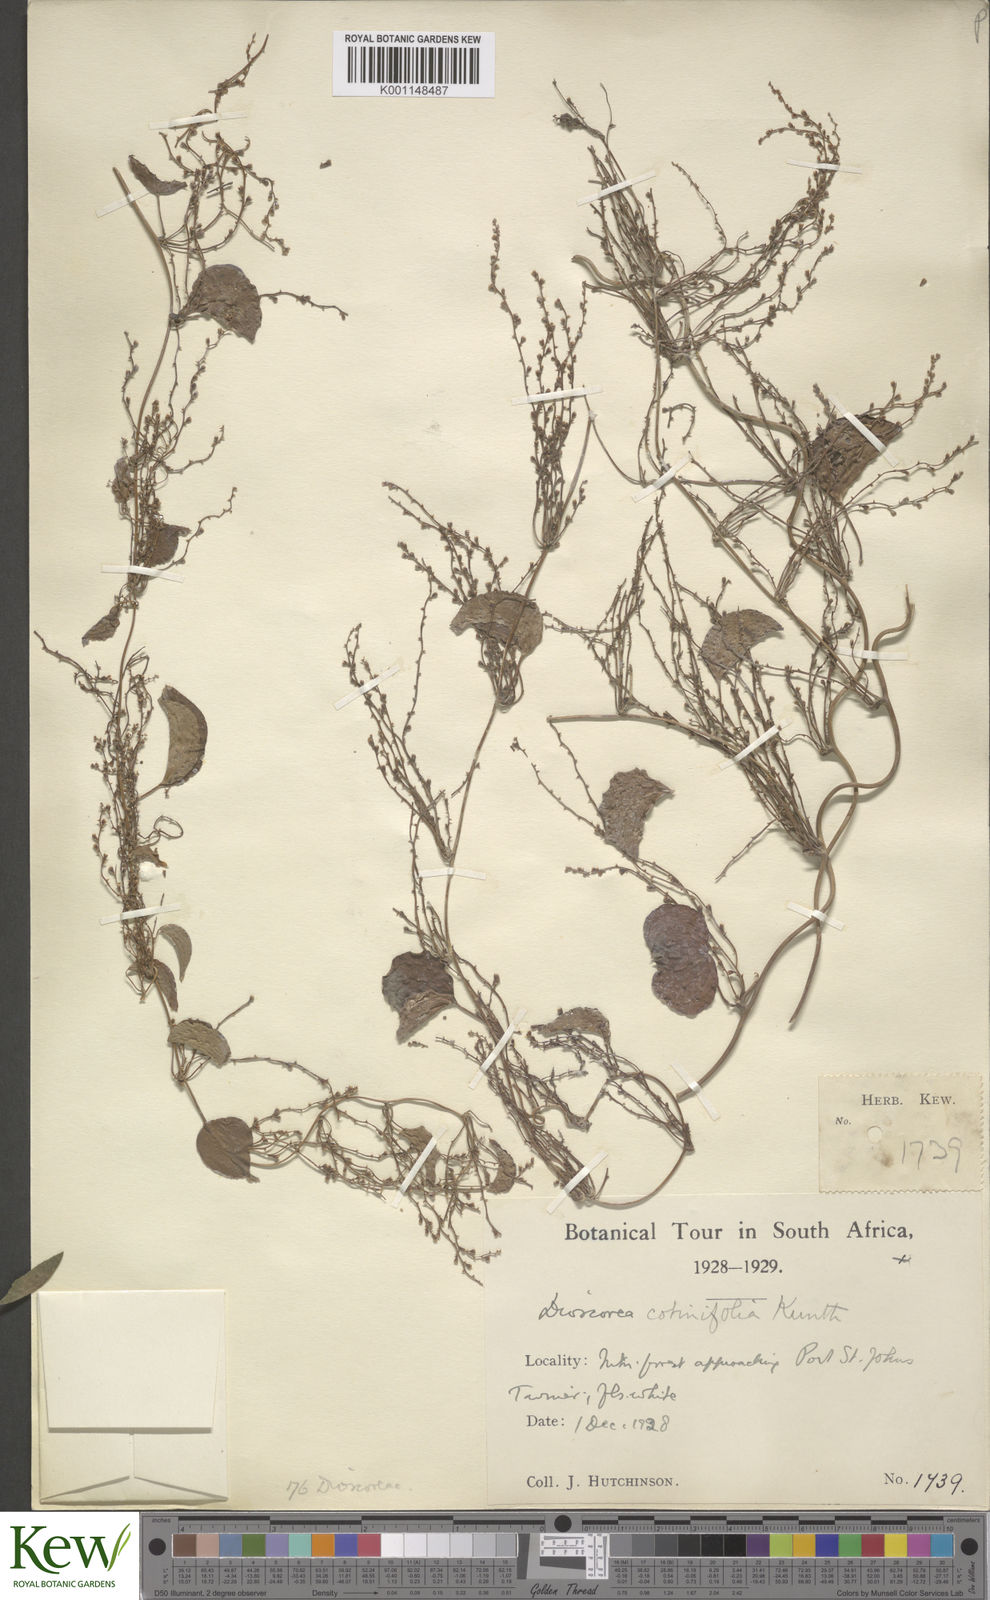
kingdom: Plantae
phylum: Tracheophyta
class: Liliopsida
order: Dioscoreales
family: Dioscoreaceae
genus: Dioscorea
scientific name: Dioscorea cotinifolia
